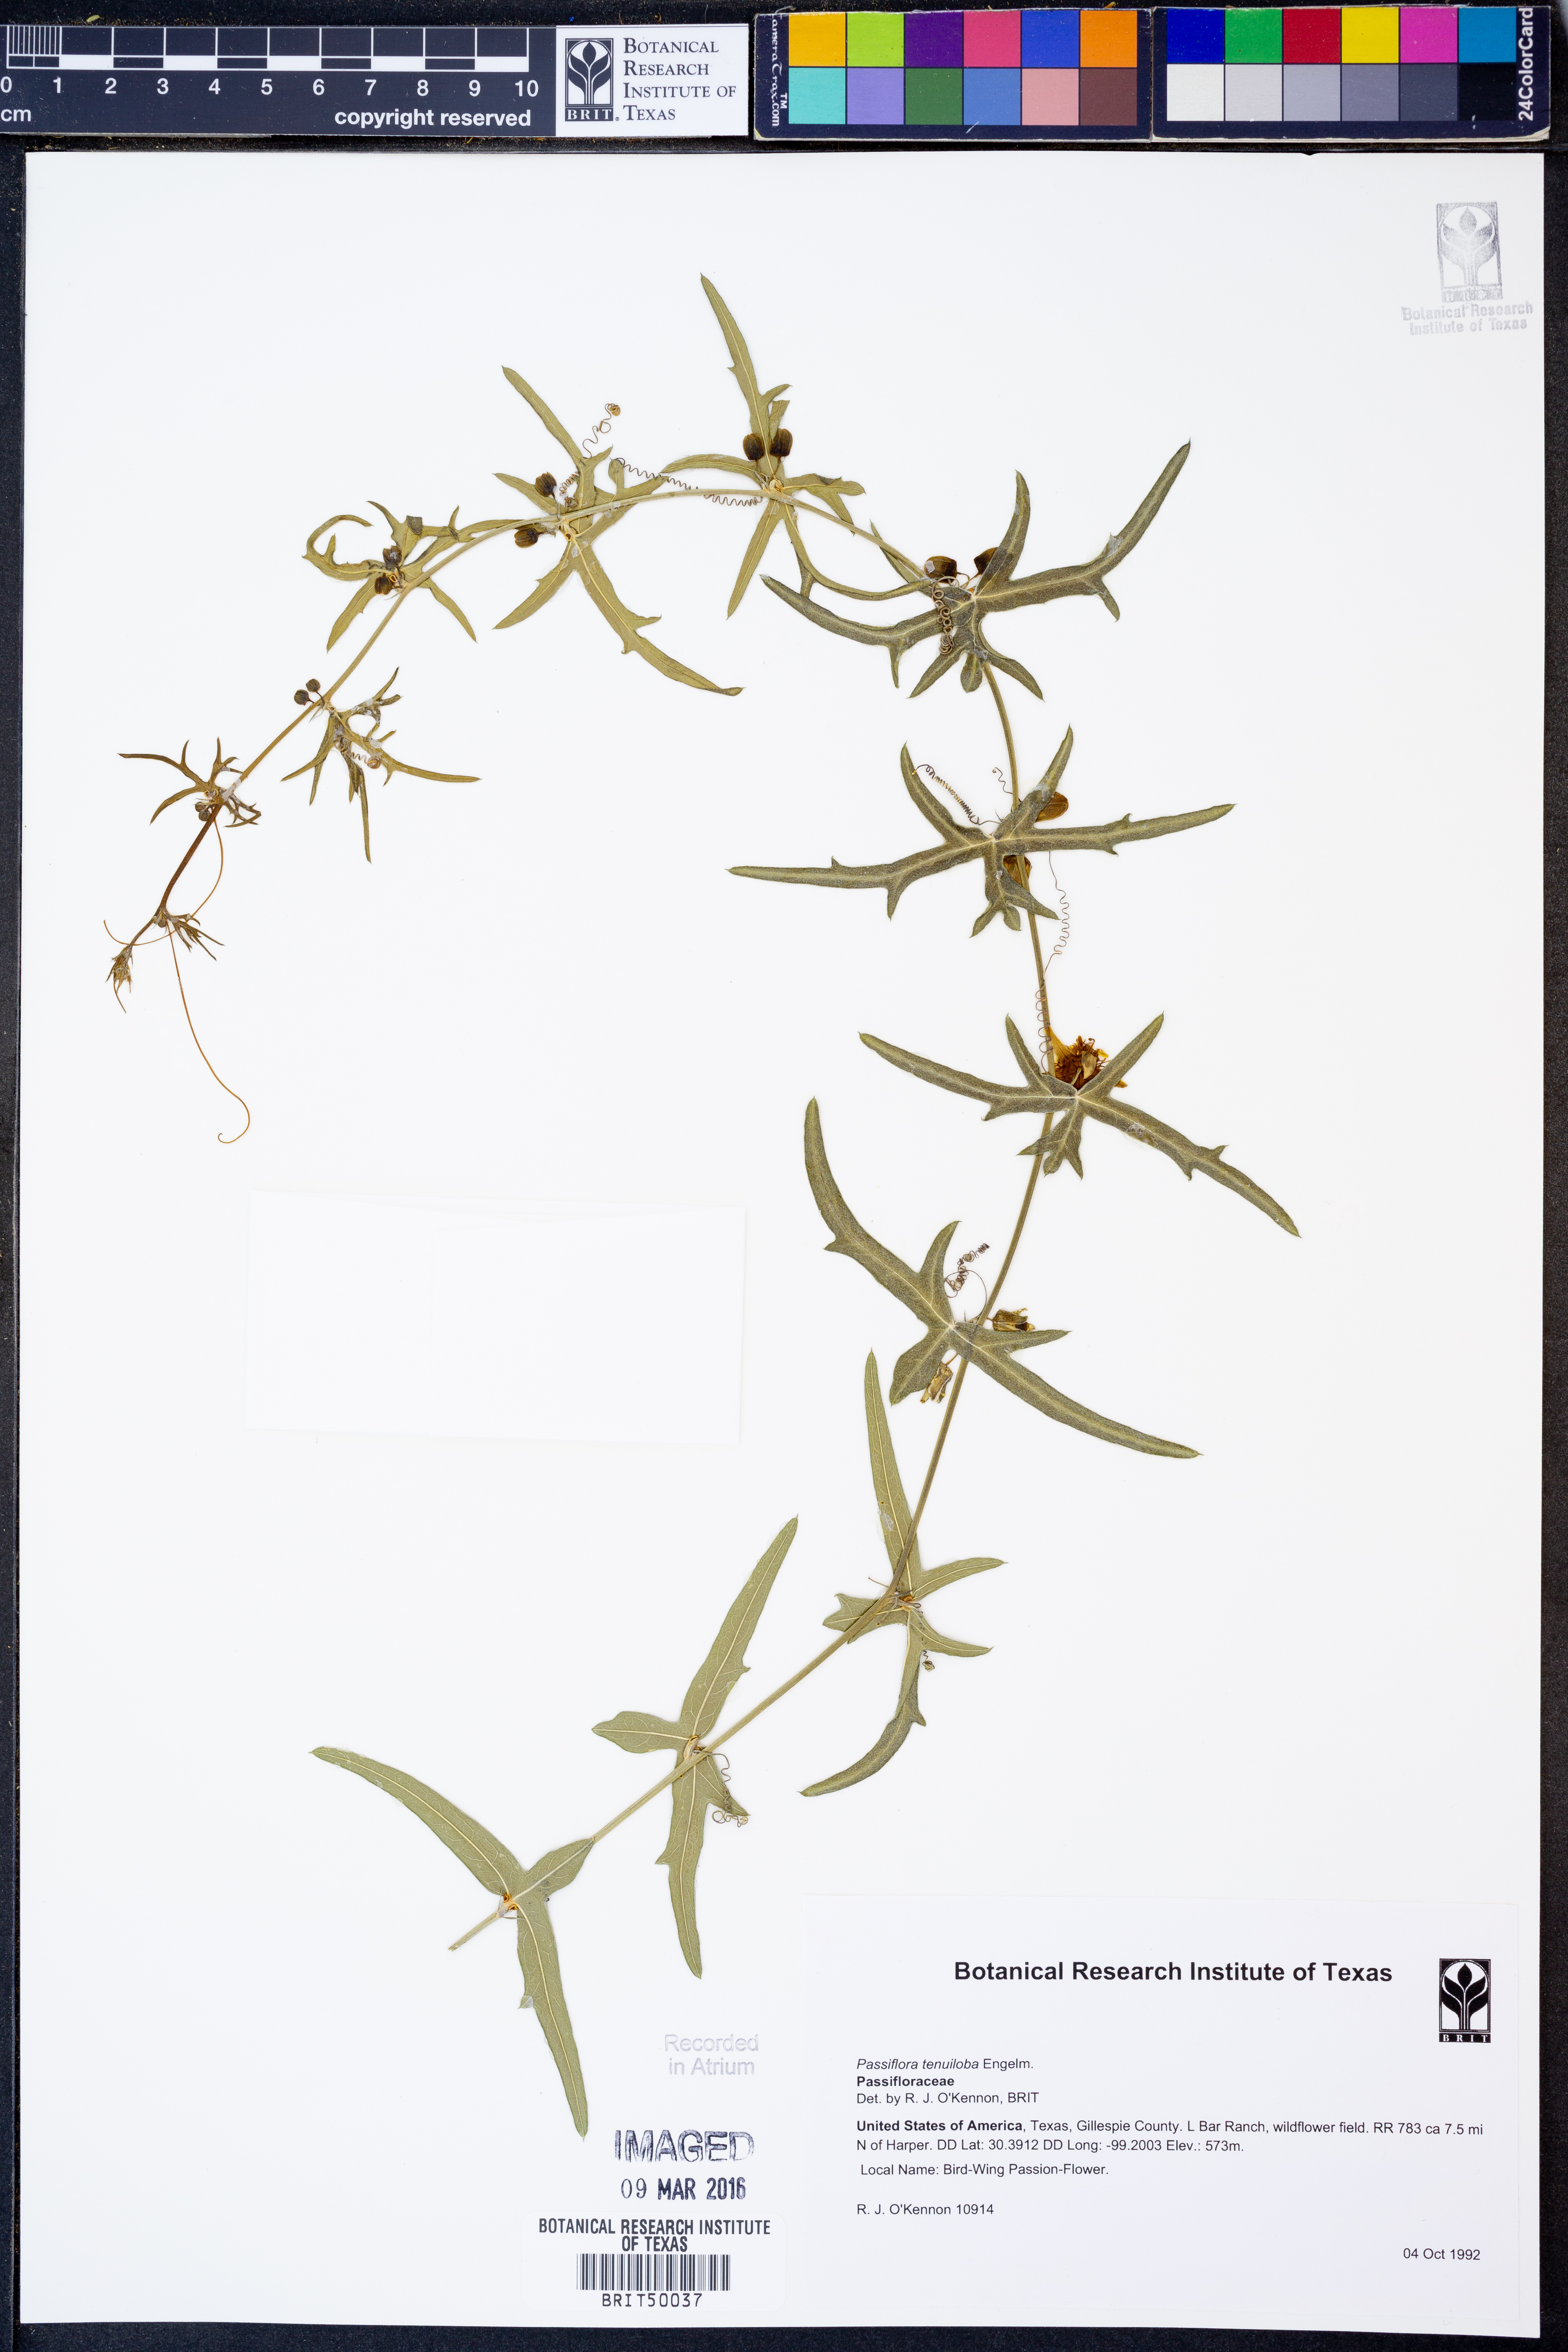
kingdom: Plantae
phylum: Tracheophyta
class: Magnoliopsida
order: Malpighiales
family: Passifloraceae
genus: Passiflora
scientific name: Passiflora tenuiloba
